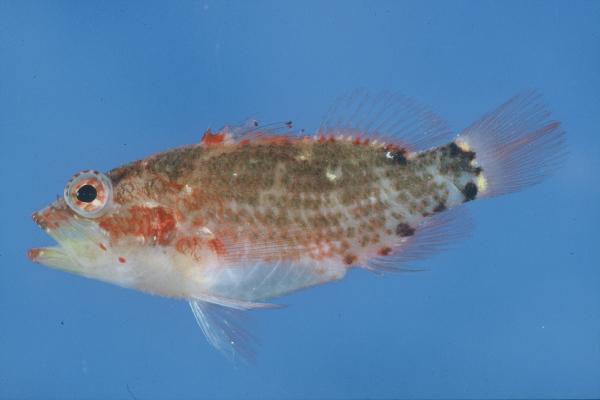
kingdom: Animalia
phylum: Chordata
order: Perciformes
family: Serranidae
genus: Plectranthias
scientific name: Plectranthias longimanus
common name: Longfin perchlet
